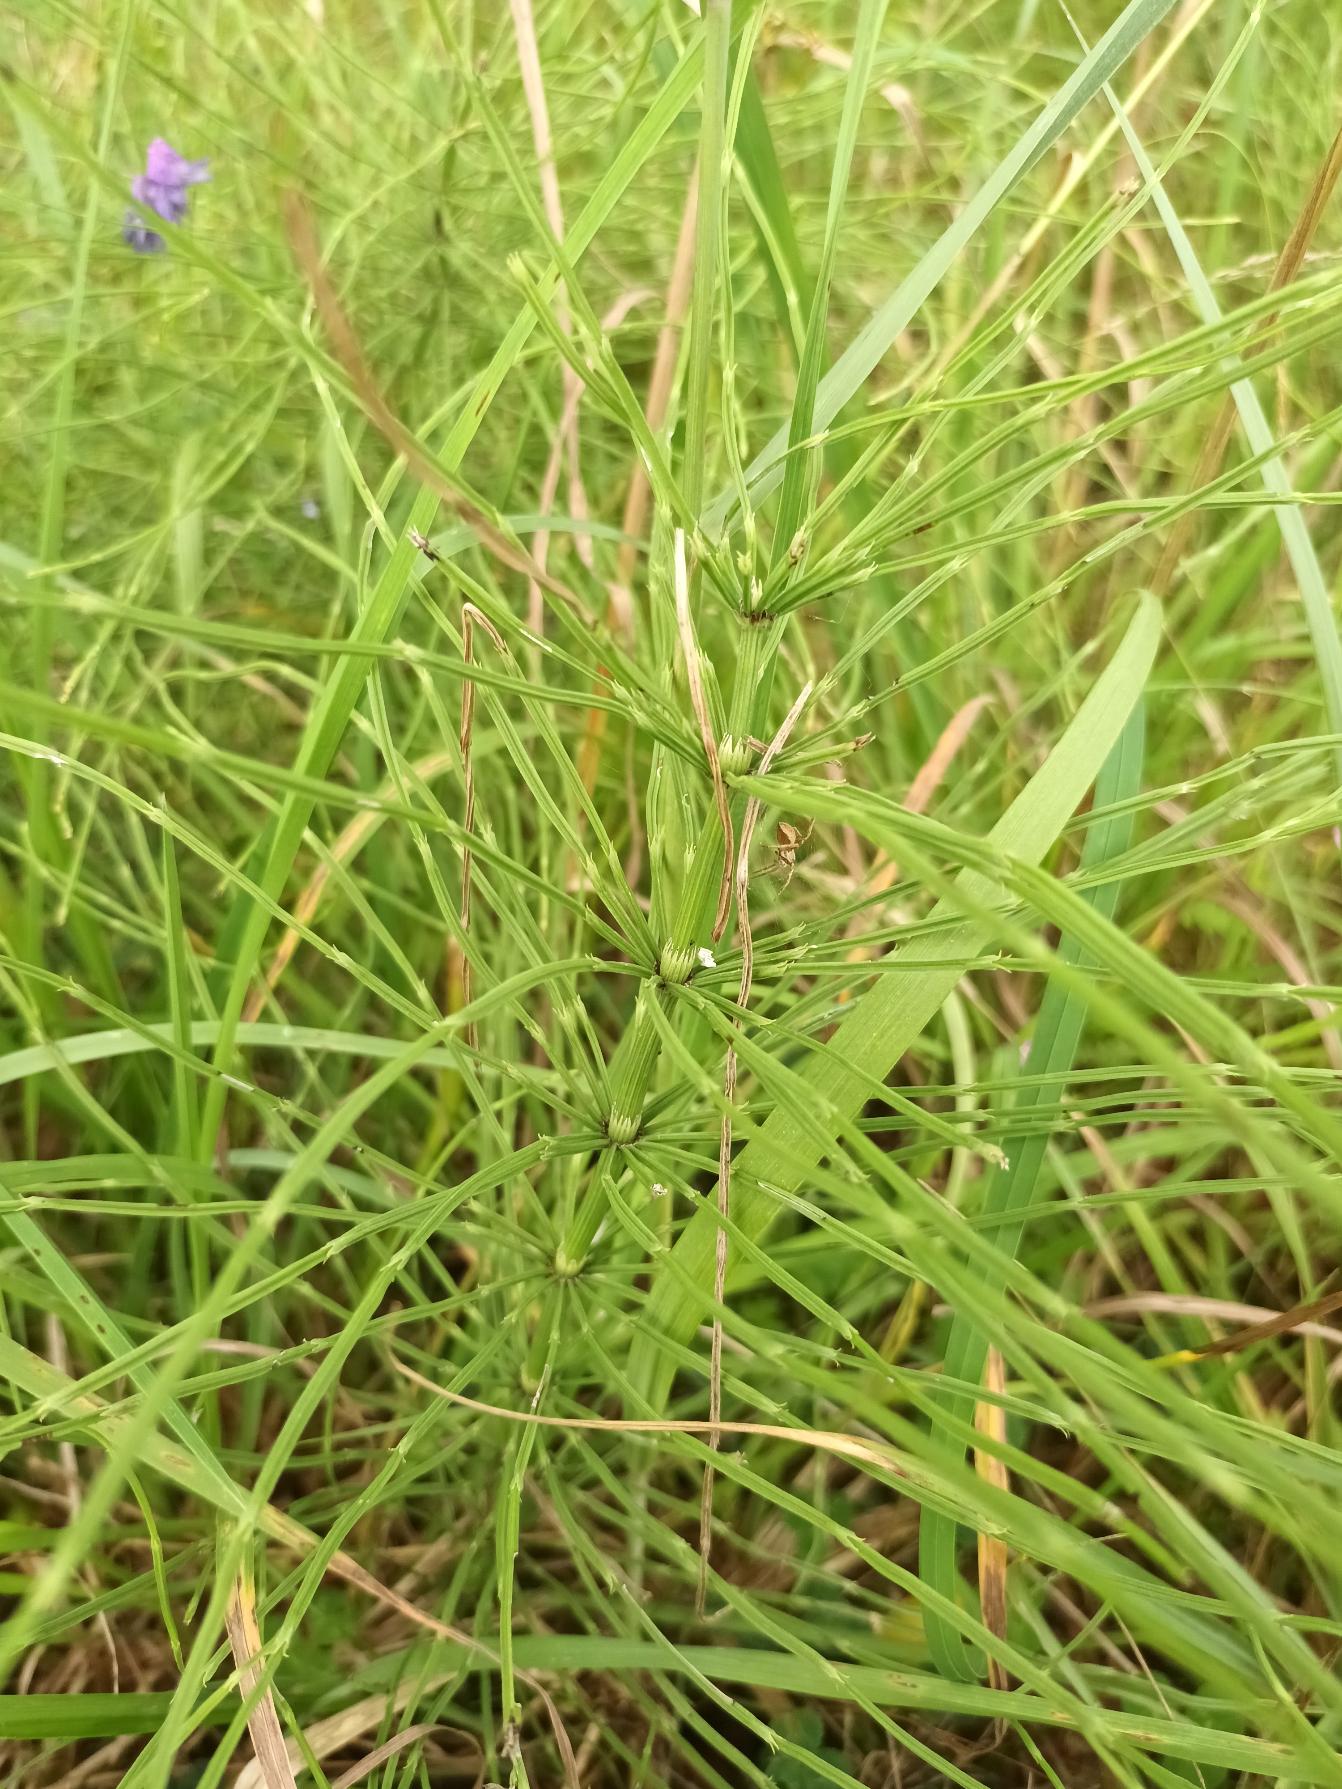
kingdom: Plantae
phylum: Tracheophyta
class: Polypodiopsida
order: Equisetales
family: Equisetaceae
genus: Equisetum
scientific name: Equisetum arvense
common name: Ager-padderok
